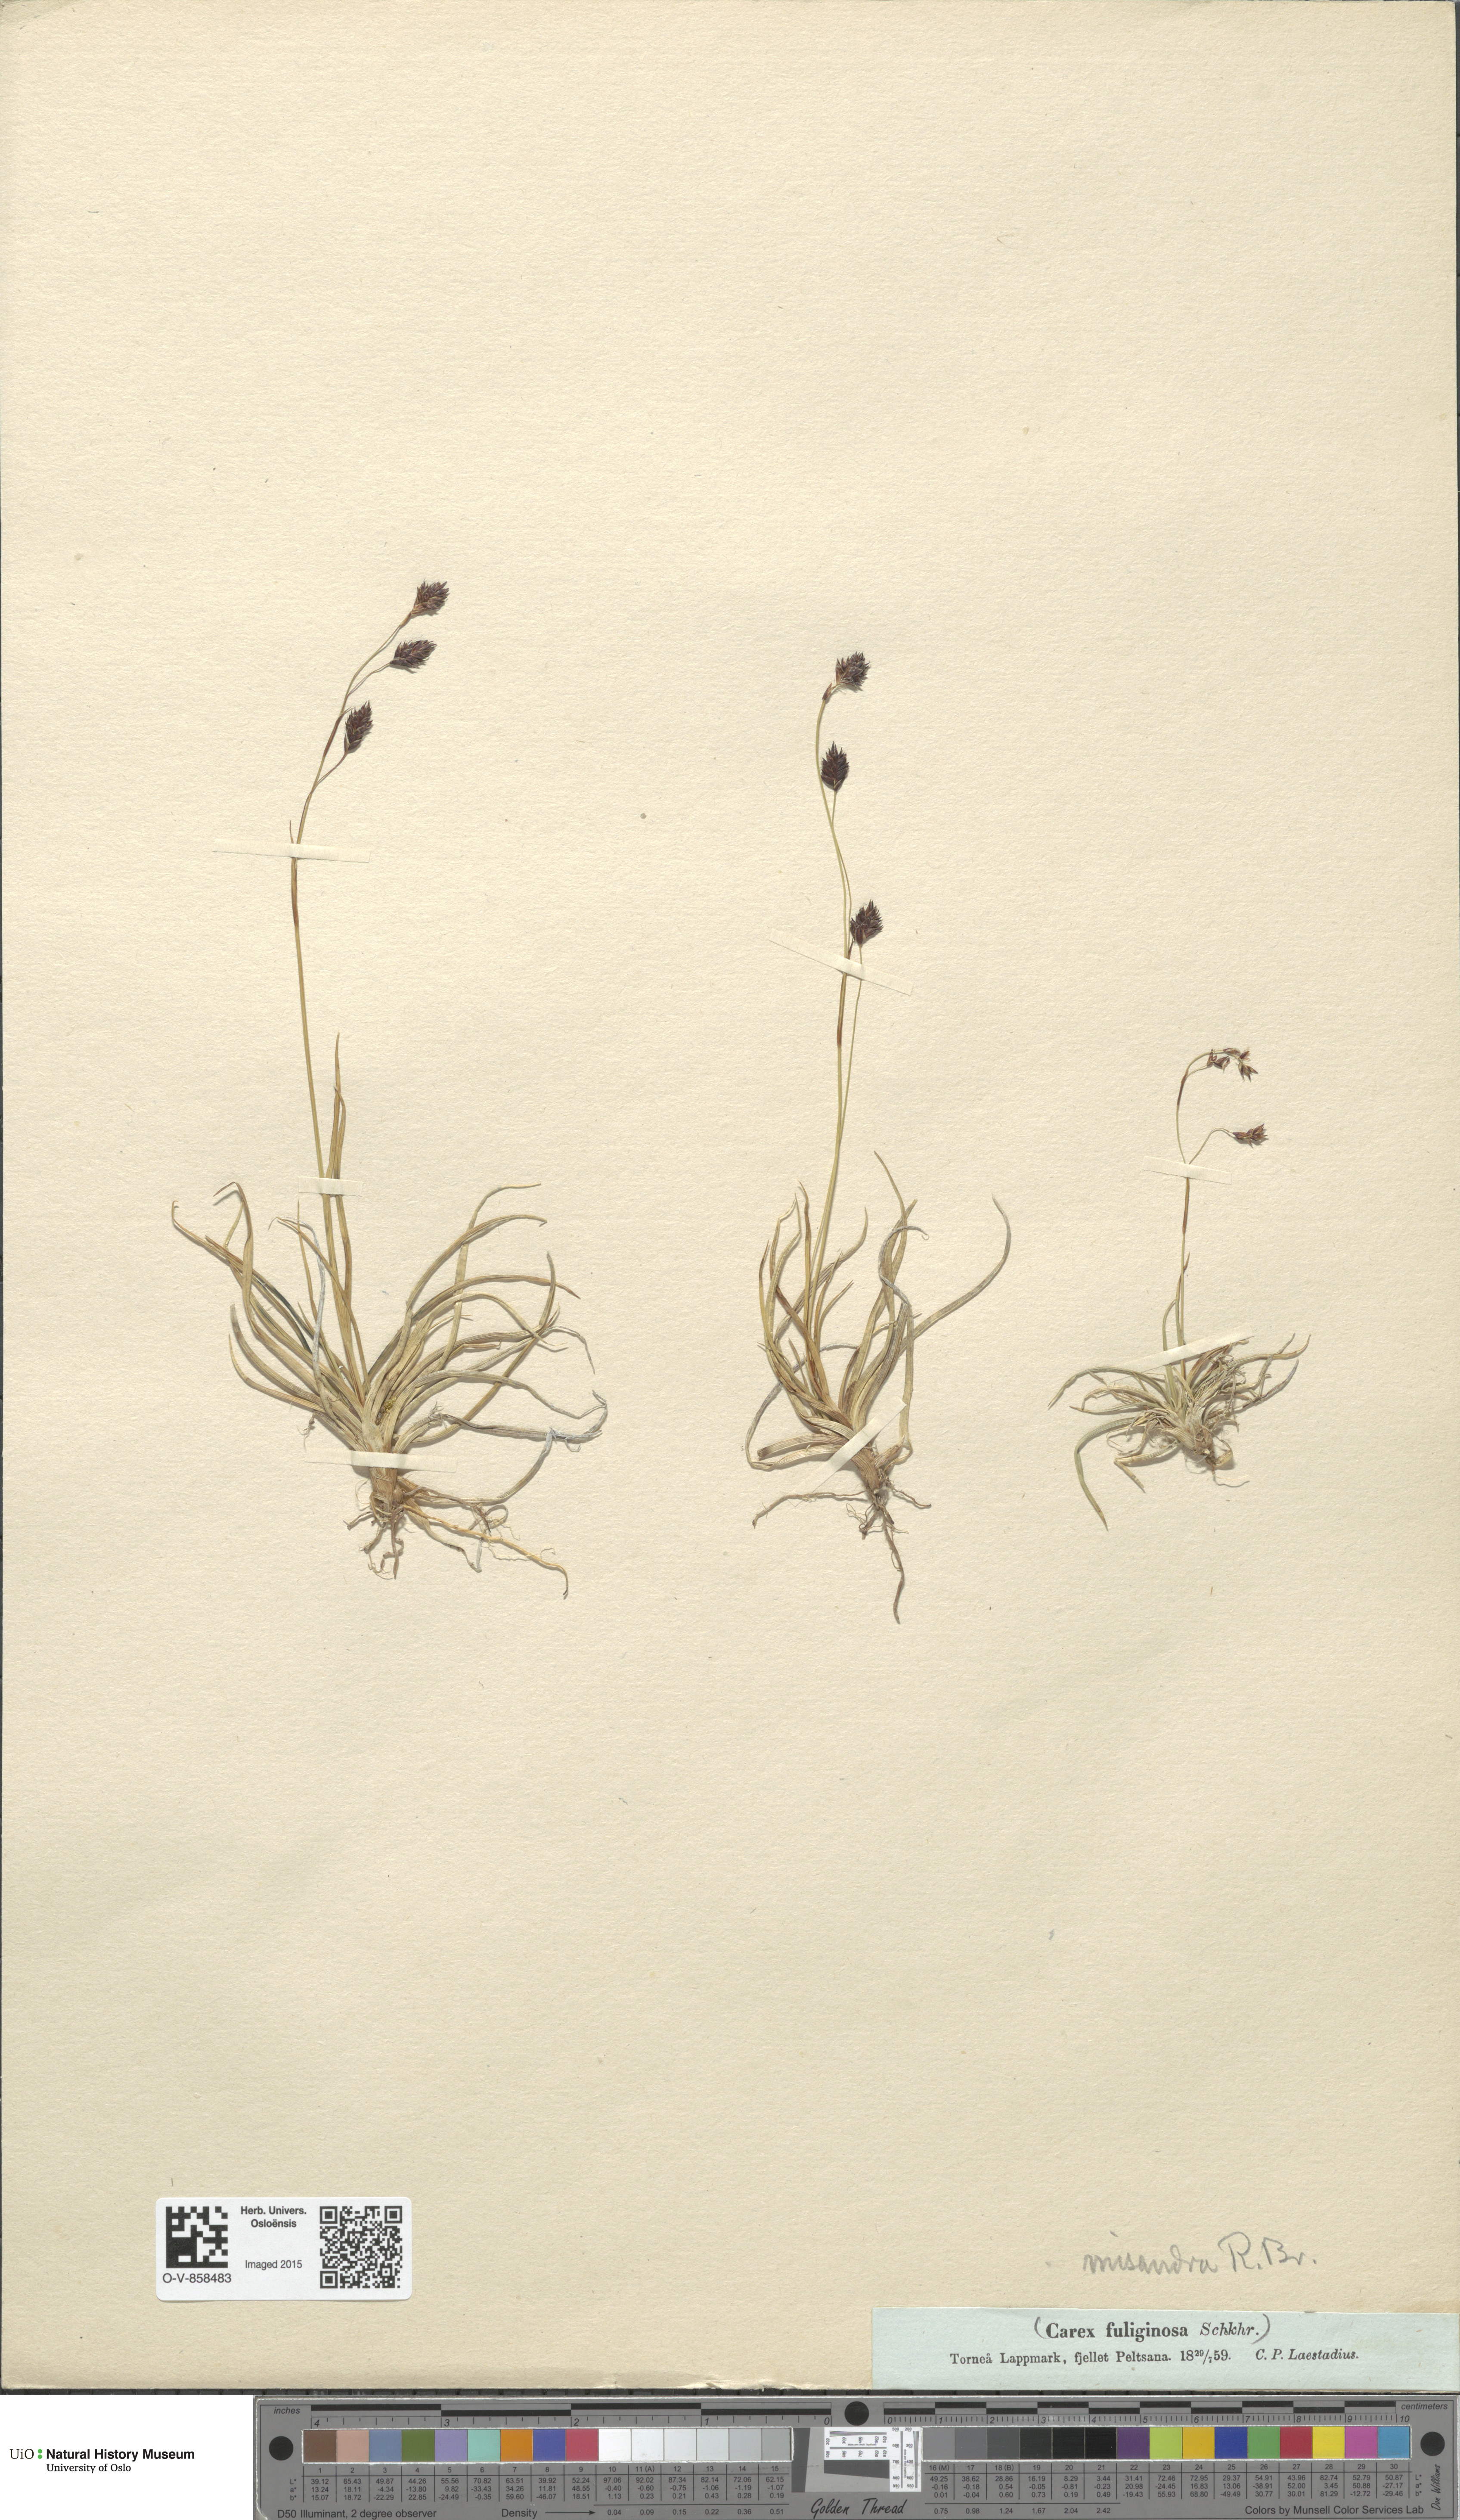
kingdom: Plantae
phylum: Tracheophyta
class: Liliopsida
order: Poales
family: Cyperaceae
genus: Carex
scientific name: Carex fuliginosa
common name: Few-flowered sedge
